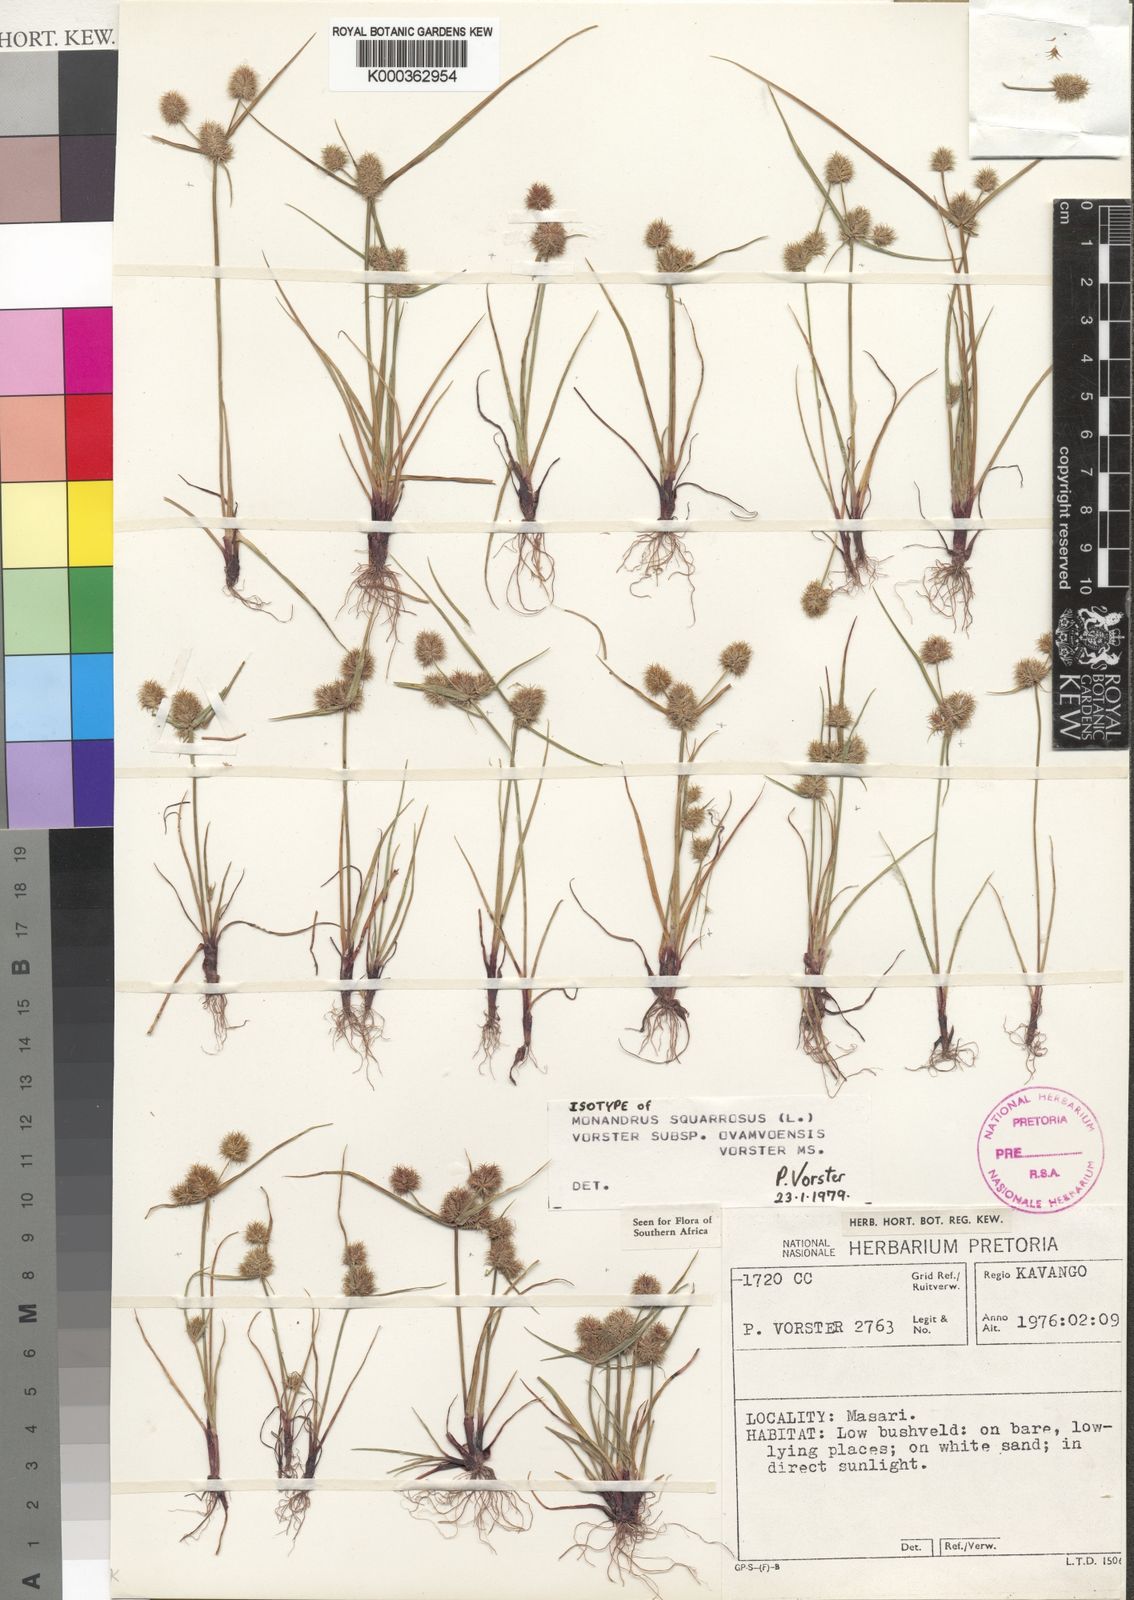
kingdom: Plantae
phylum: Tracheophyta
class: Liliopsida
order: Poales
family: Cyperaceae
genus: Cyperus
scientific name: Cyperus
